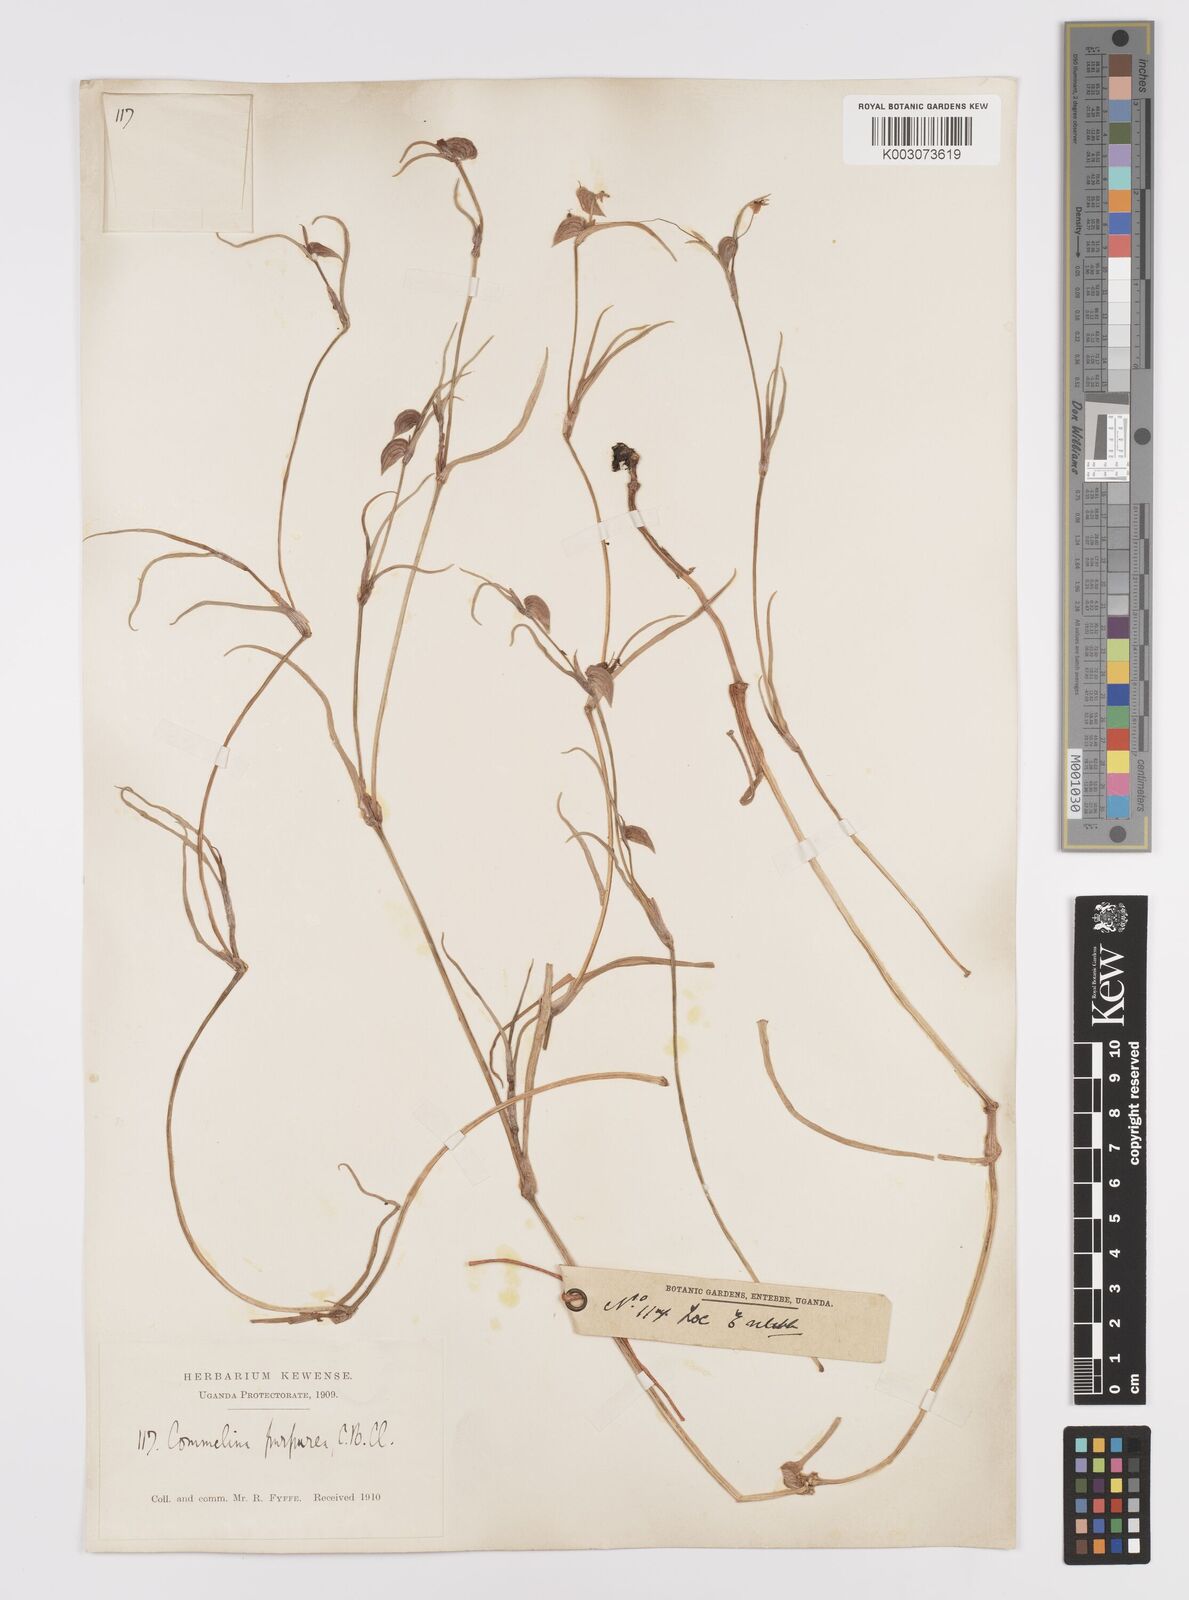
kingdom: Plantae
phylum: Tracheophyta
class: Liliopsida
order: Commelinales
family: Commelinaceae
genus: Commelina
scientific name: Commelina purpurea
